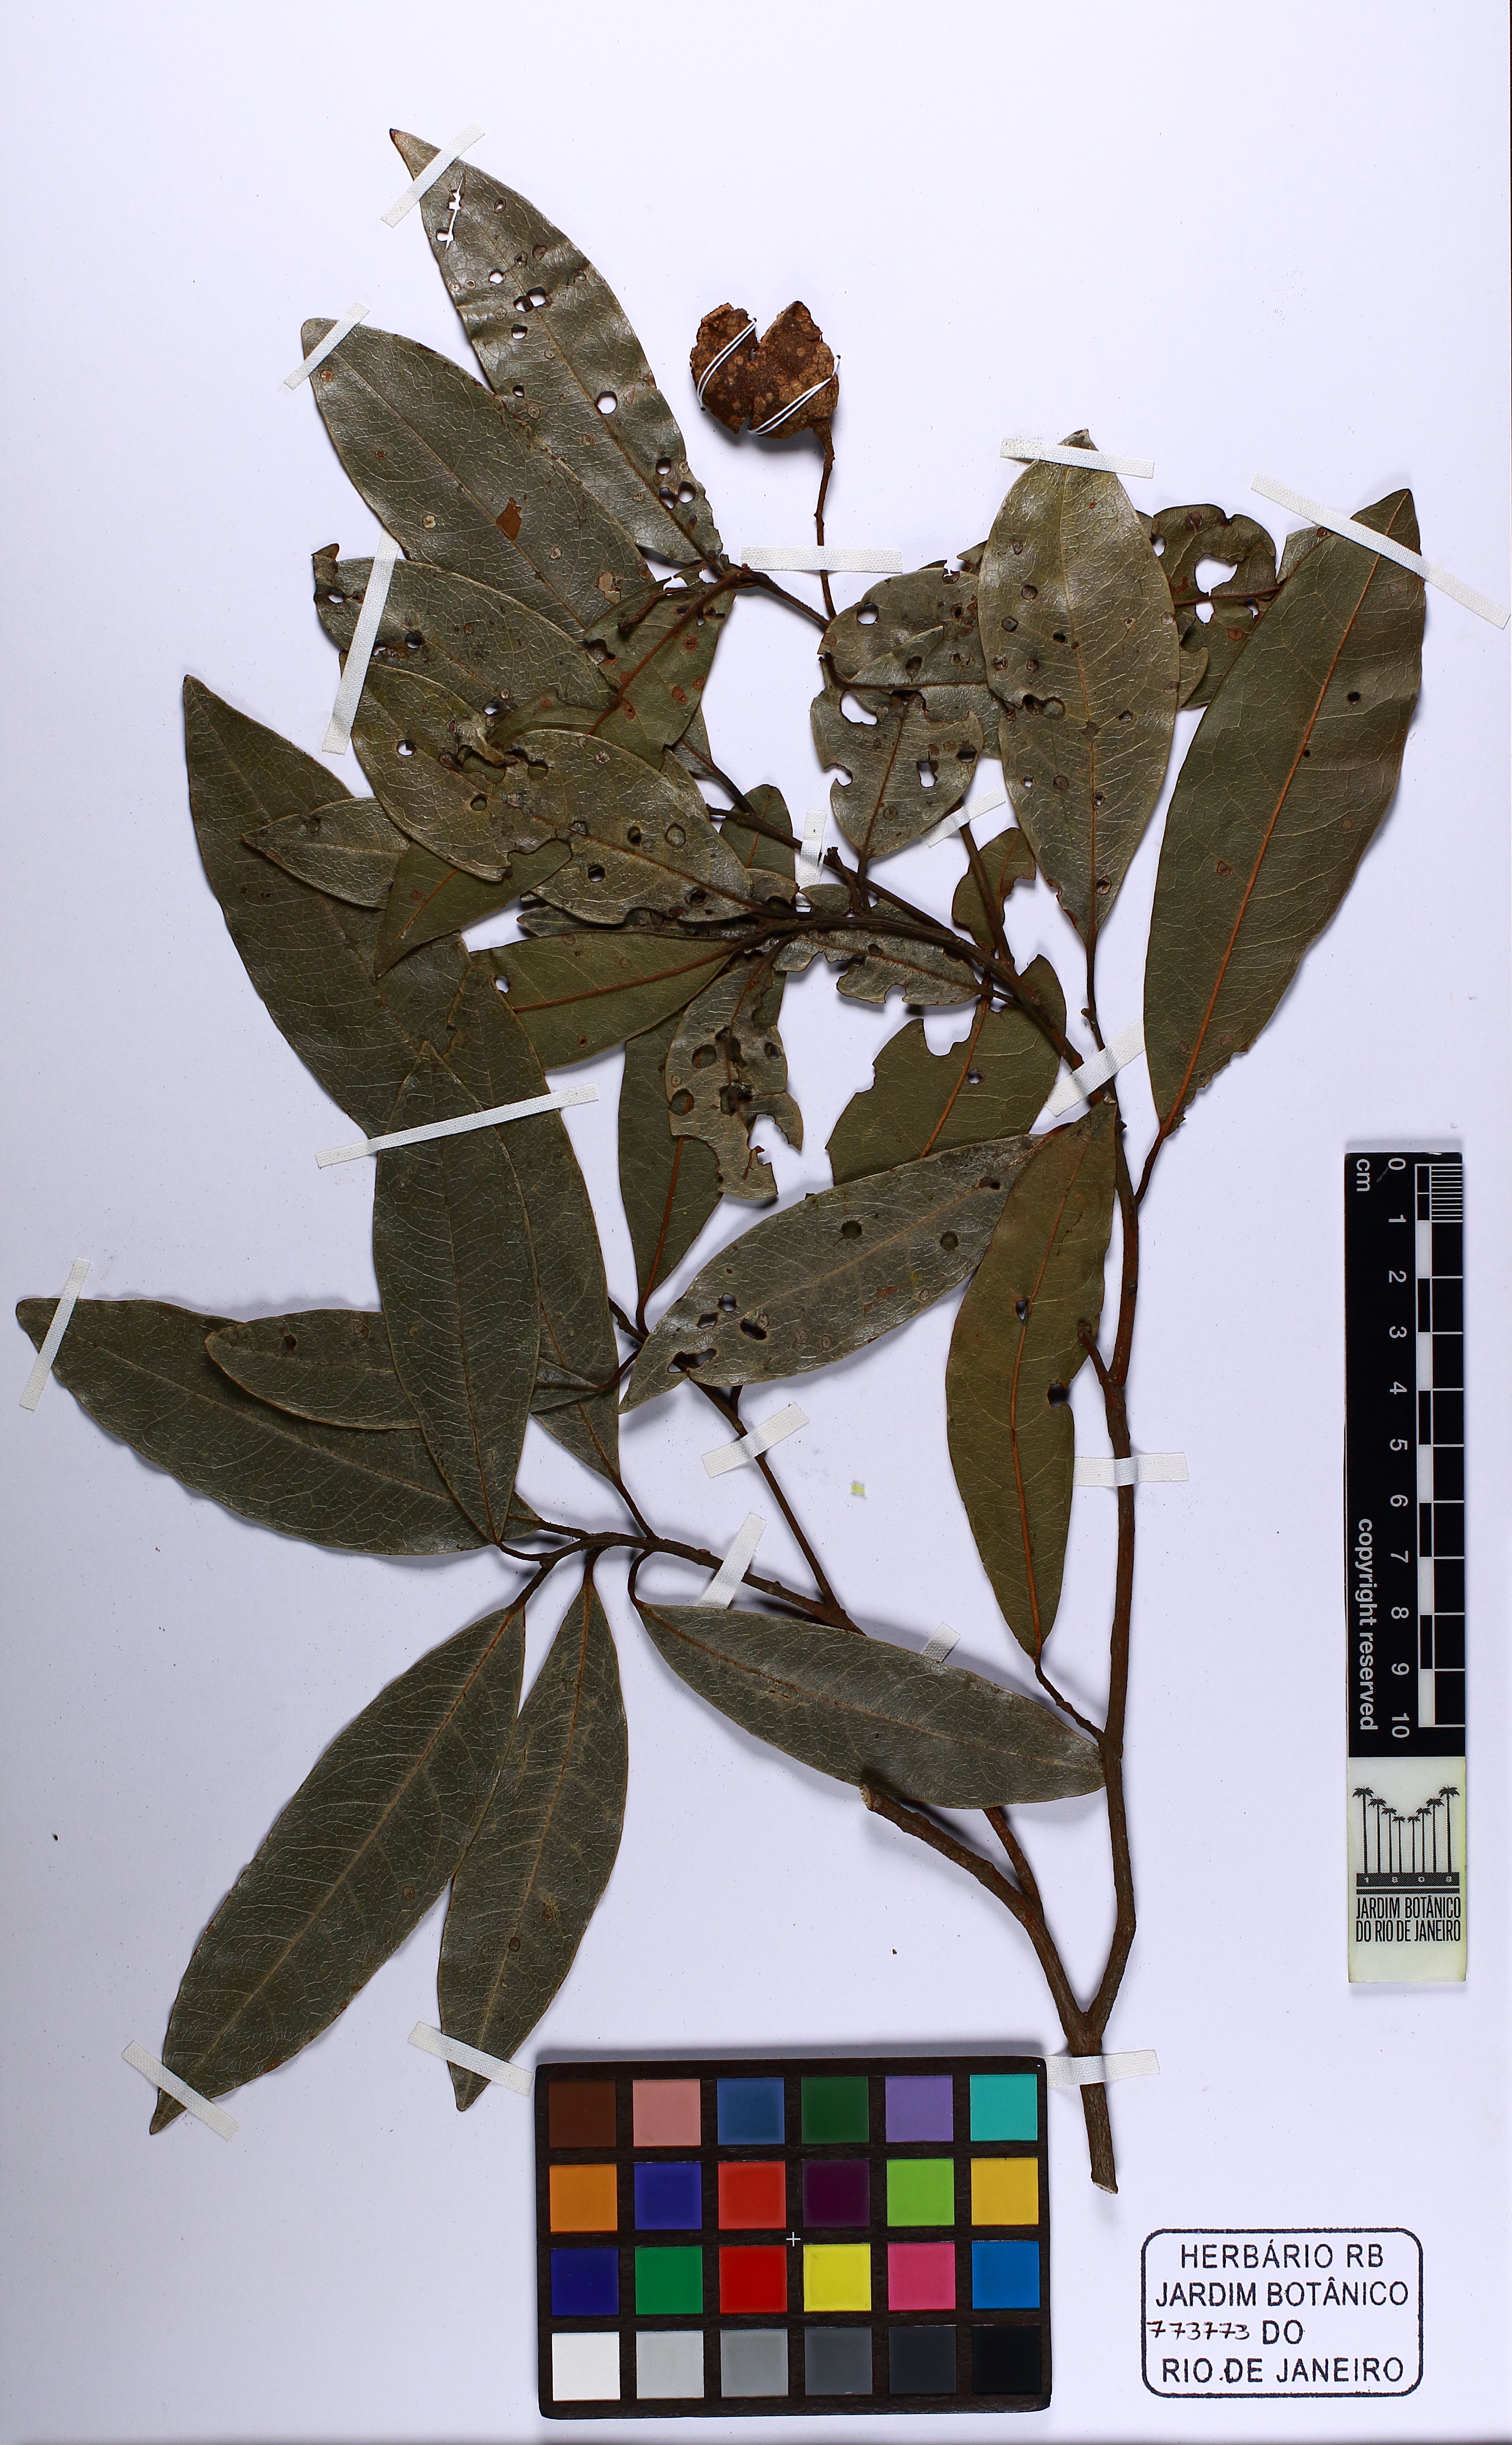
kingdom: Plantae
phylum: Tracheophyta
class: Magnoliopsida
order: Laurales
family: Lauraceae
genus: Beilschmiedia
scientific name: Beilschmiedia taubertiana
